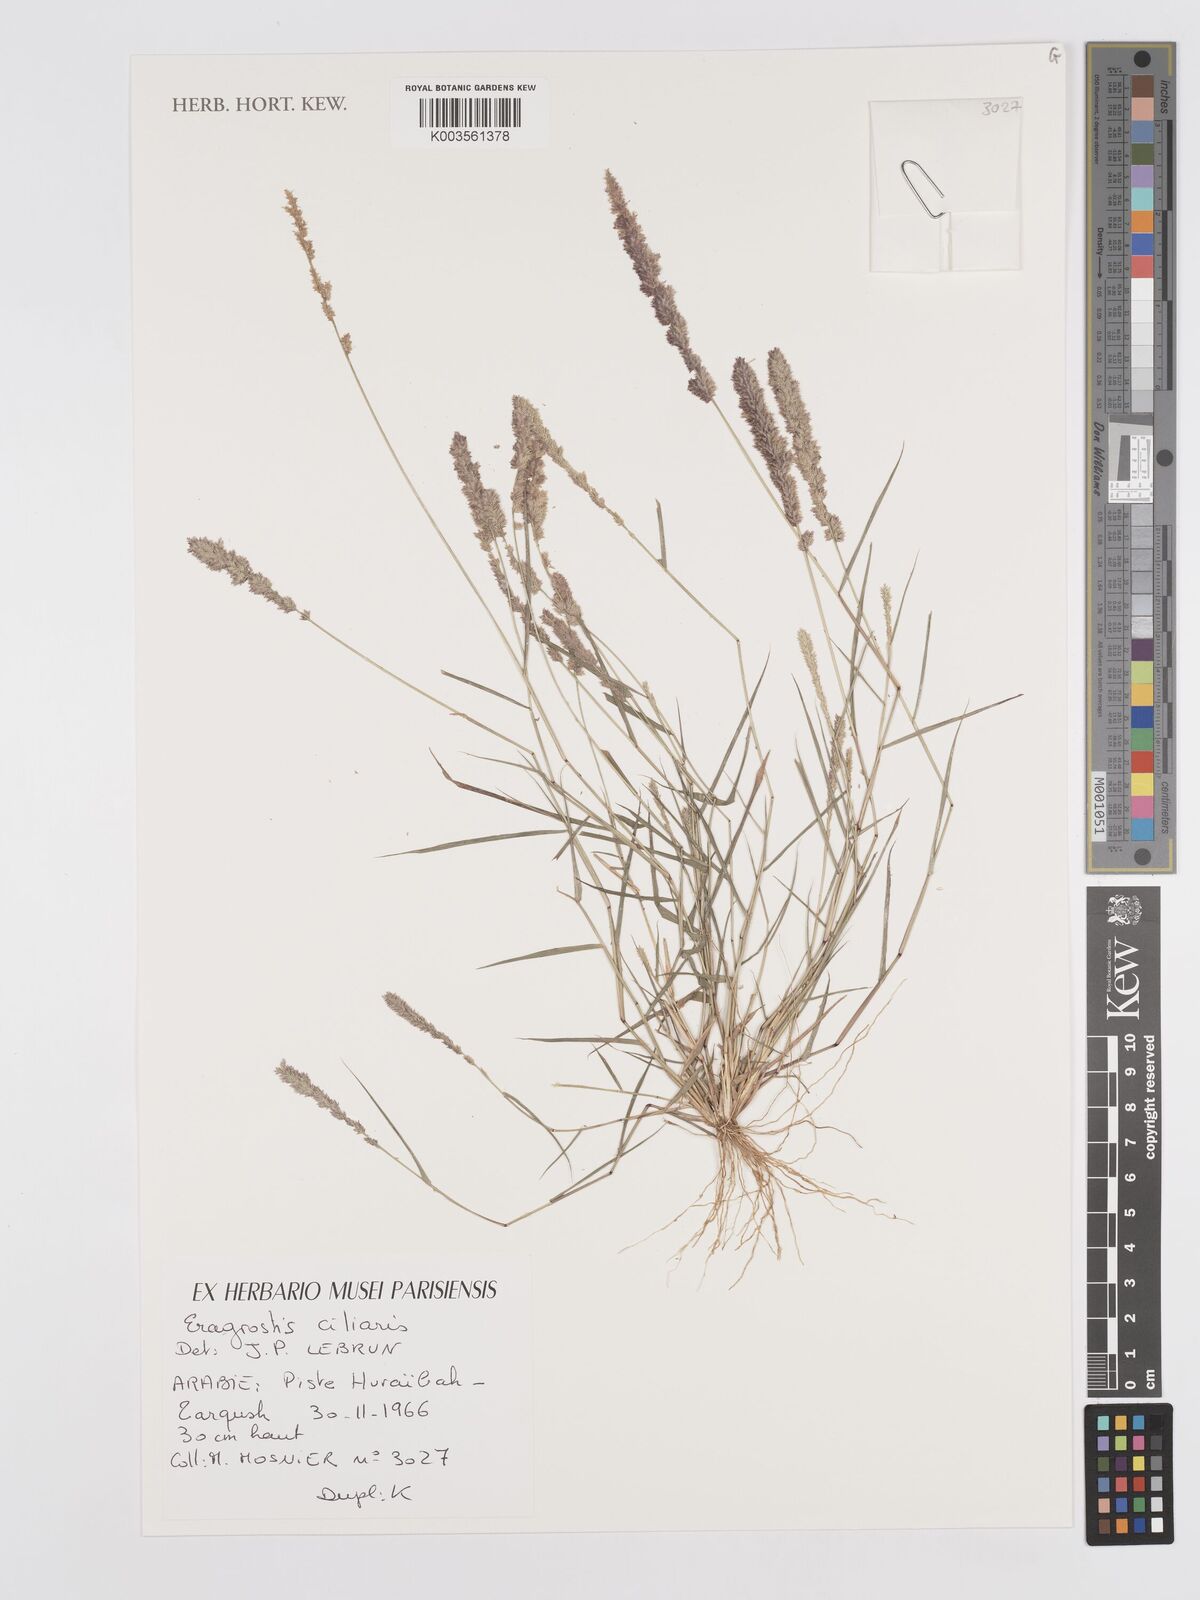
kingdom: Plantae
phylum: Tracheophyta
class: Liliopsida
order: Poales
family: Poaceae
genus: Eragrostis
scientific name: Eragrostis ciliaris
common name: Gophertail lovegrass
